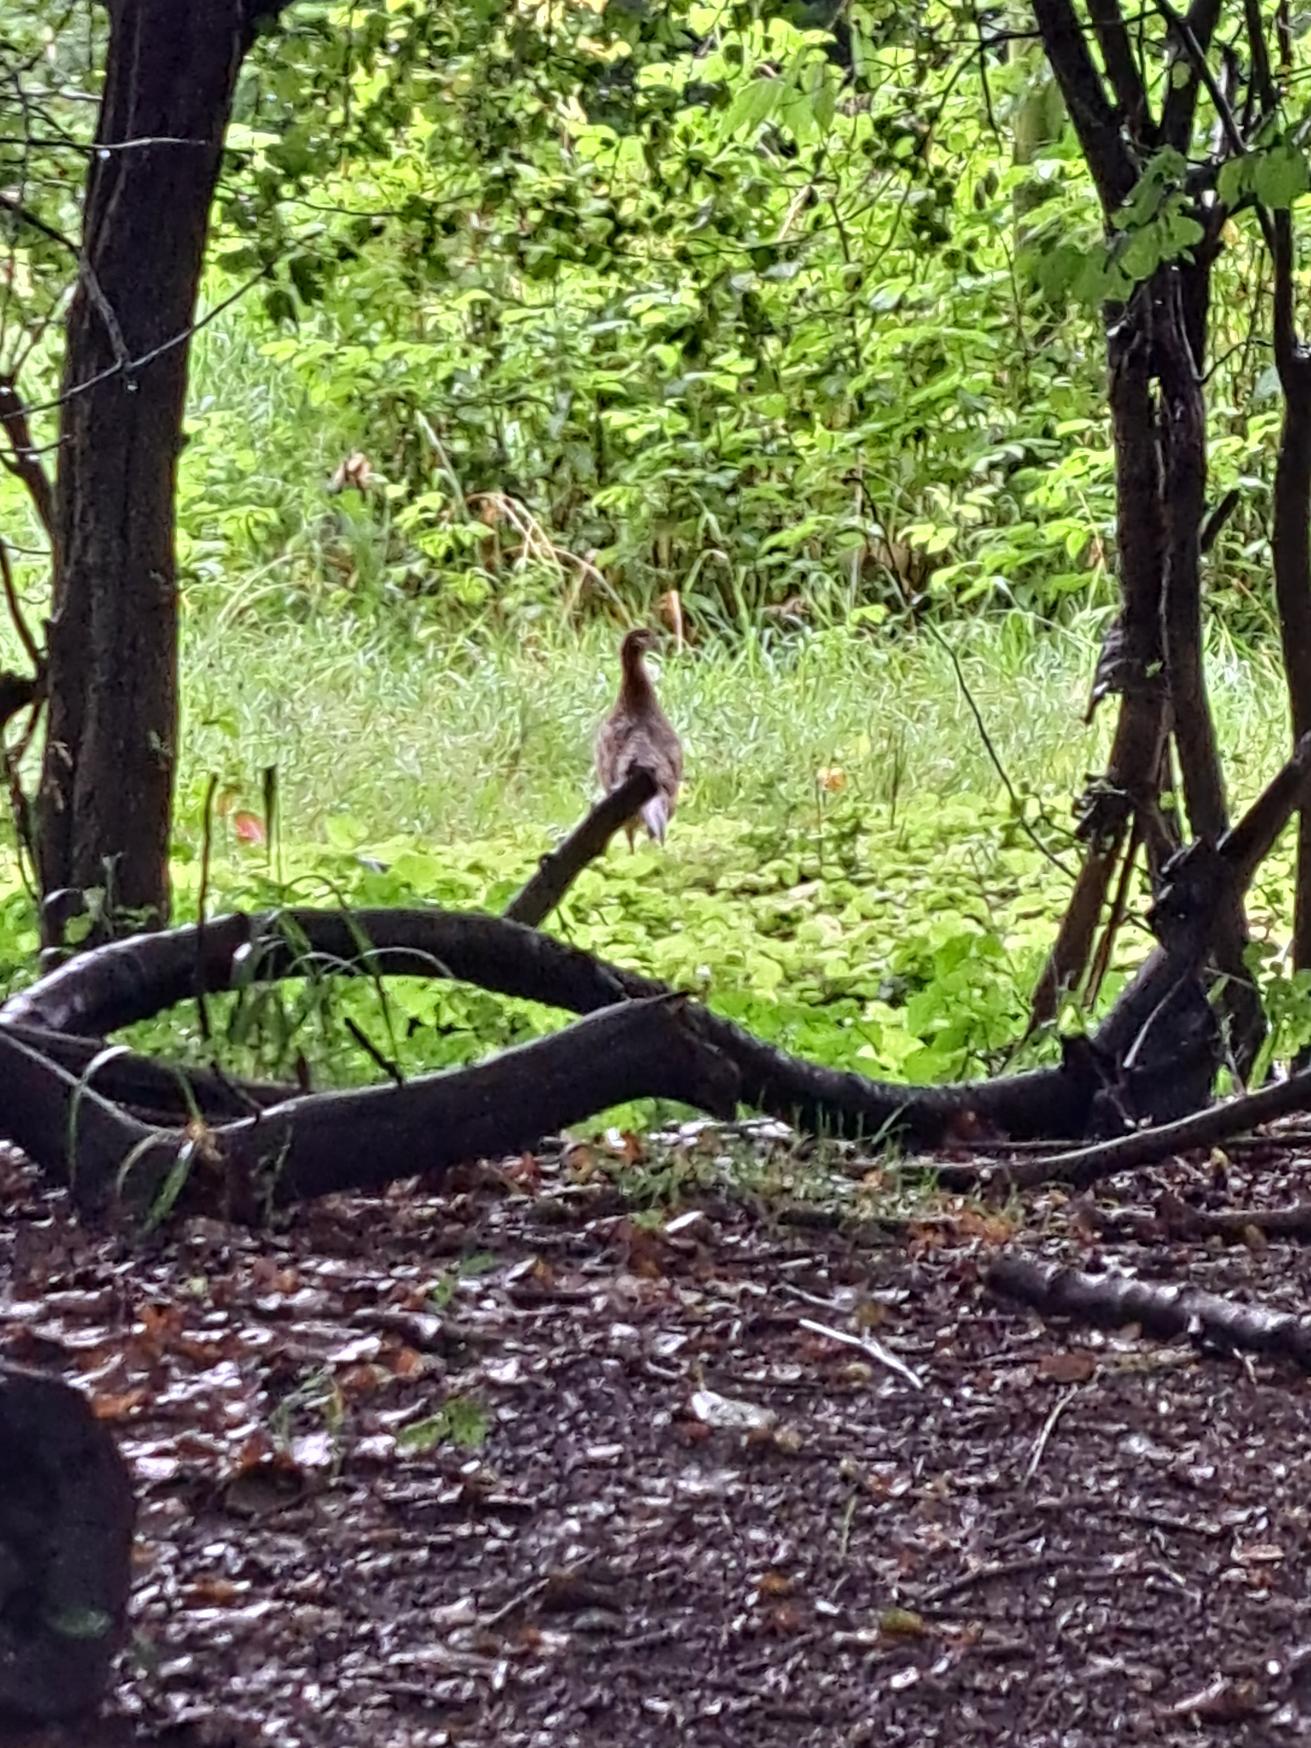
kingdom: Animalia
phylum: Chordata
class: Aves
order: Galliformes
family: Phasianidae
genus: Phasianus
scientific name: Phasianus colchicus
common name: Fasan
